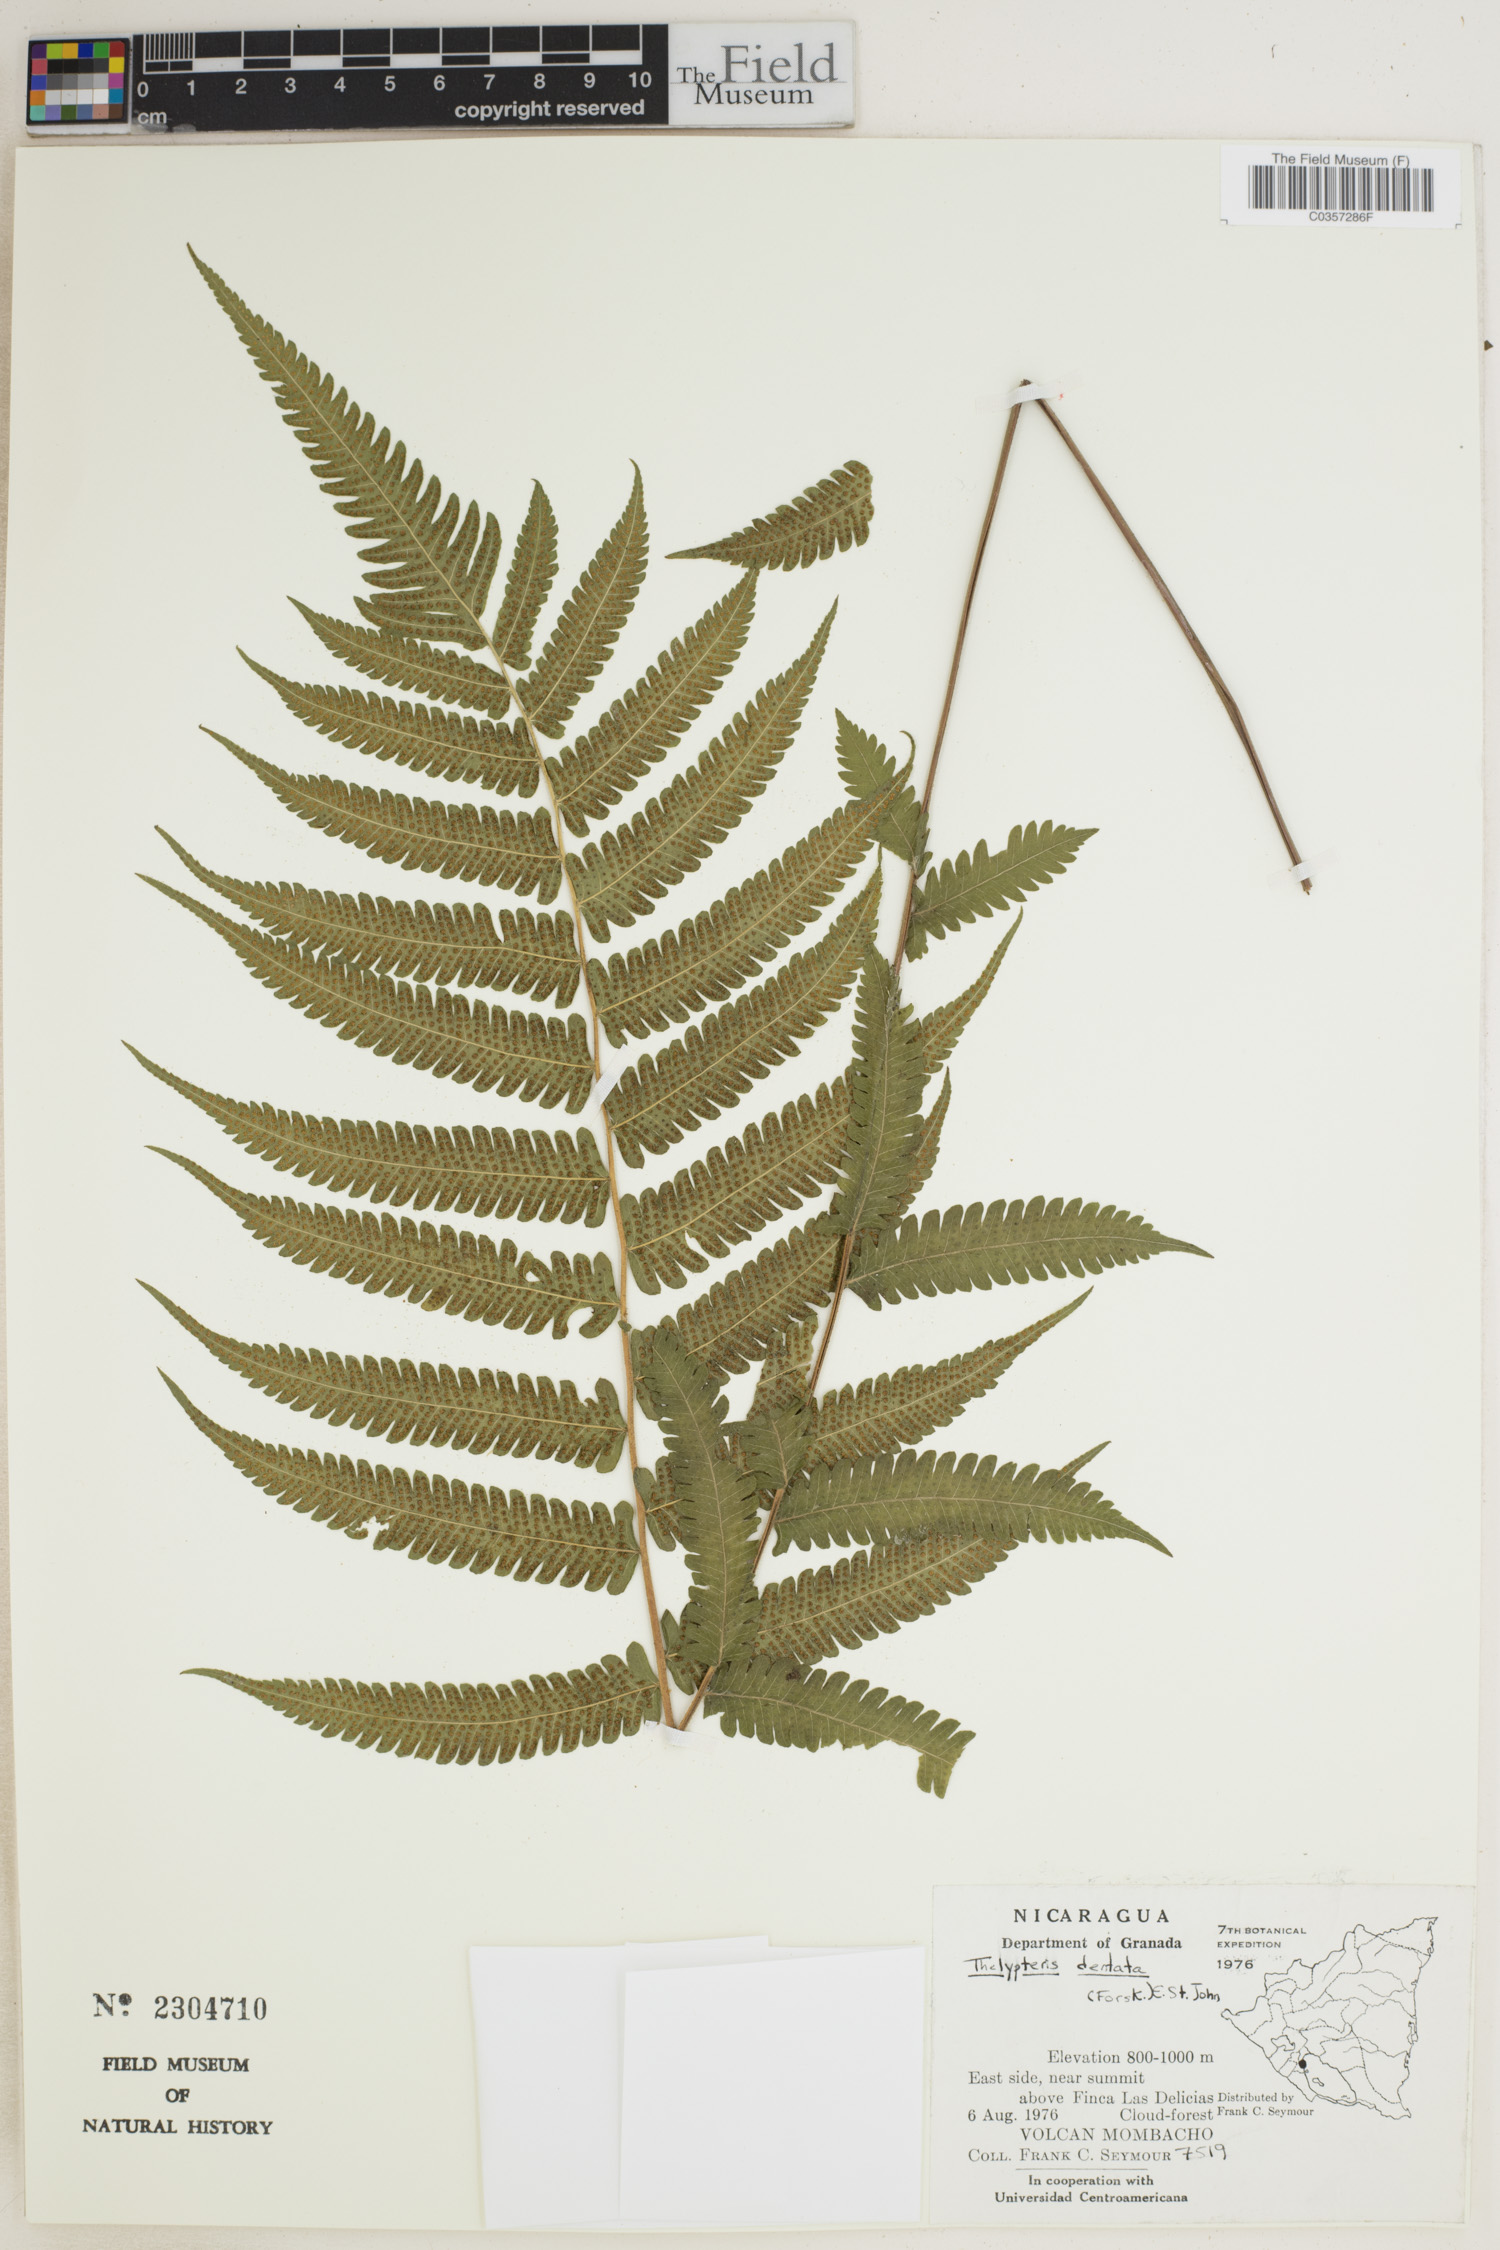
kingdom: Plantae
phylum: Tracheophyta
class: Polypodiopsida
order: Polypodiales
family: Thelypteridaceae
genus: Christella
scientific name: Christella dentata
